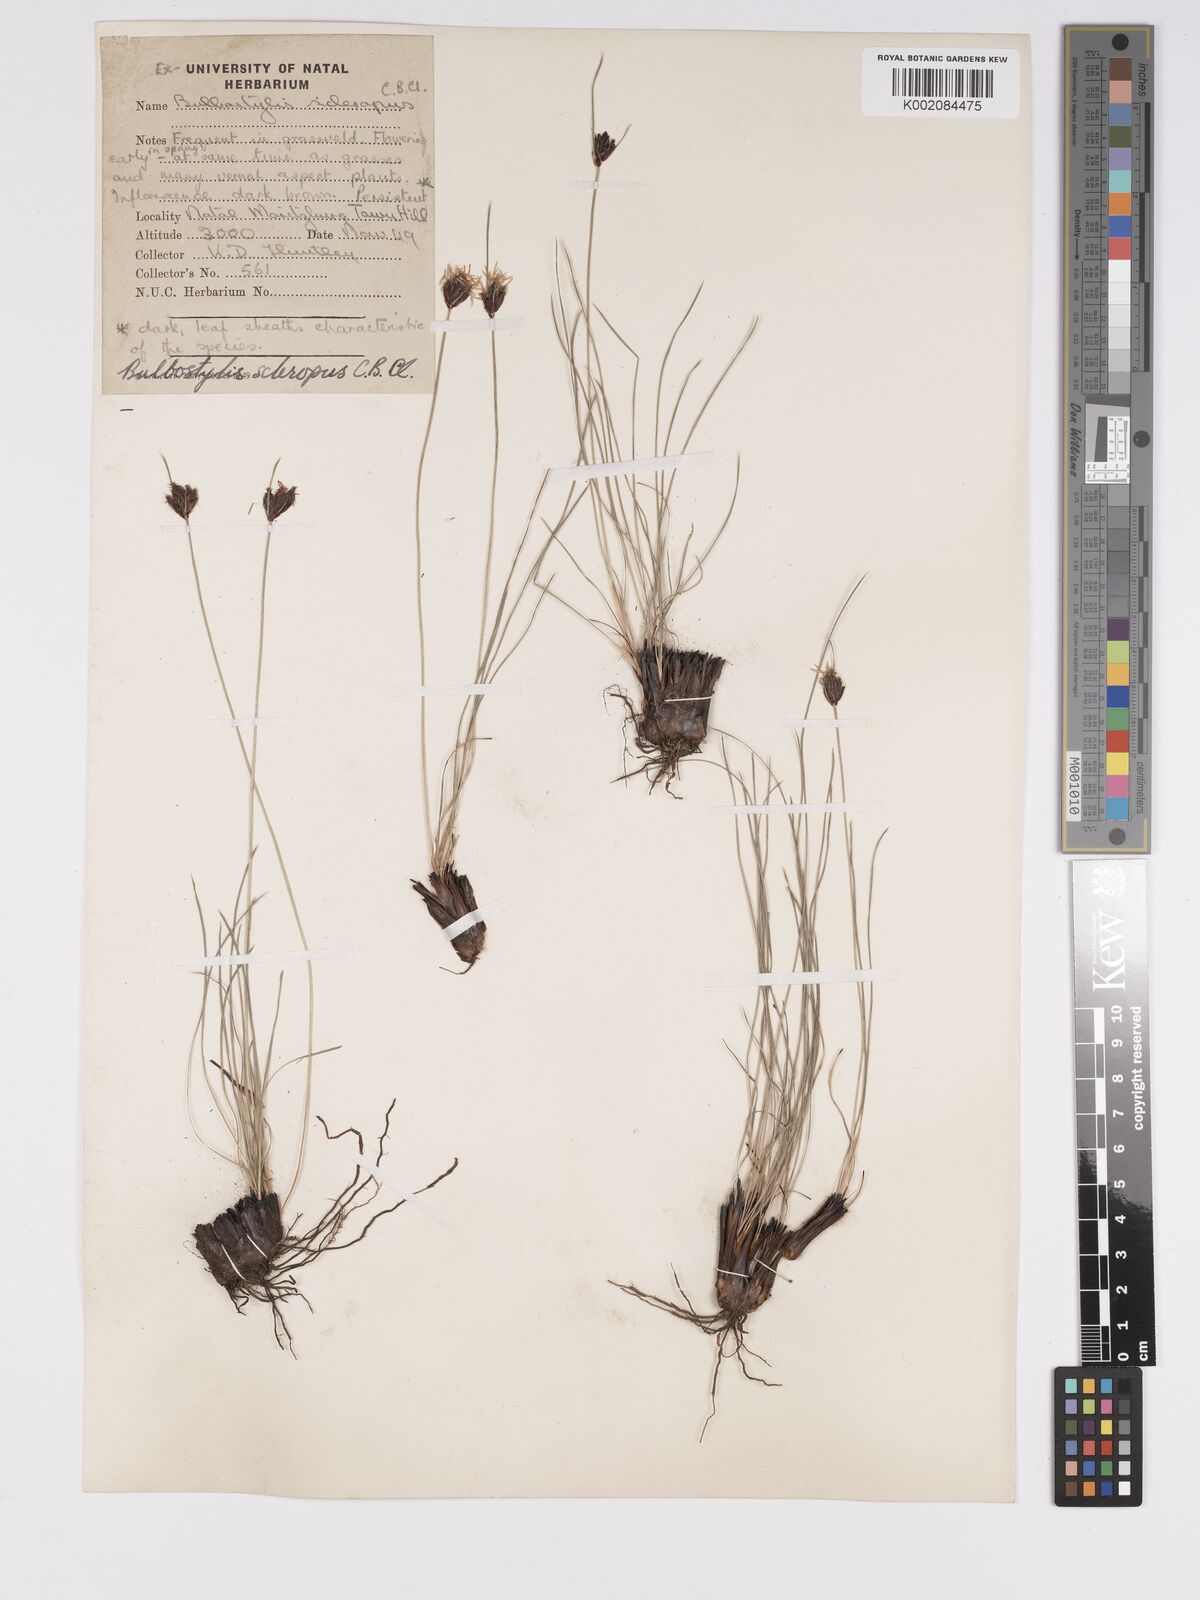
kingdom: Plantae
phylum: Tracheophyta
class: Liliopsida
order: Poales
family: Cyperaceae
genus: Bulbostylis
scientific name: Bulbostylis schoenoides
